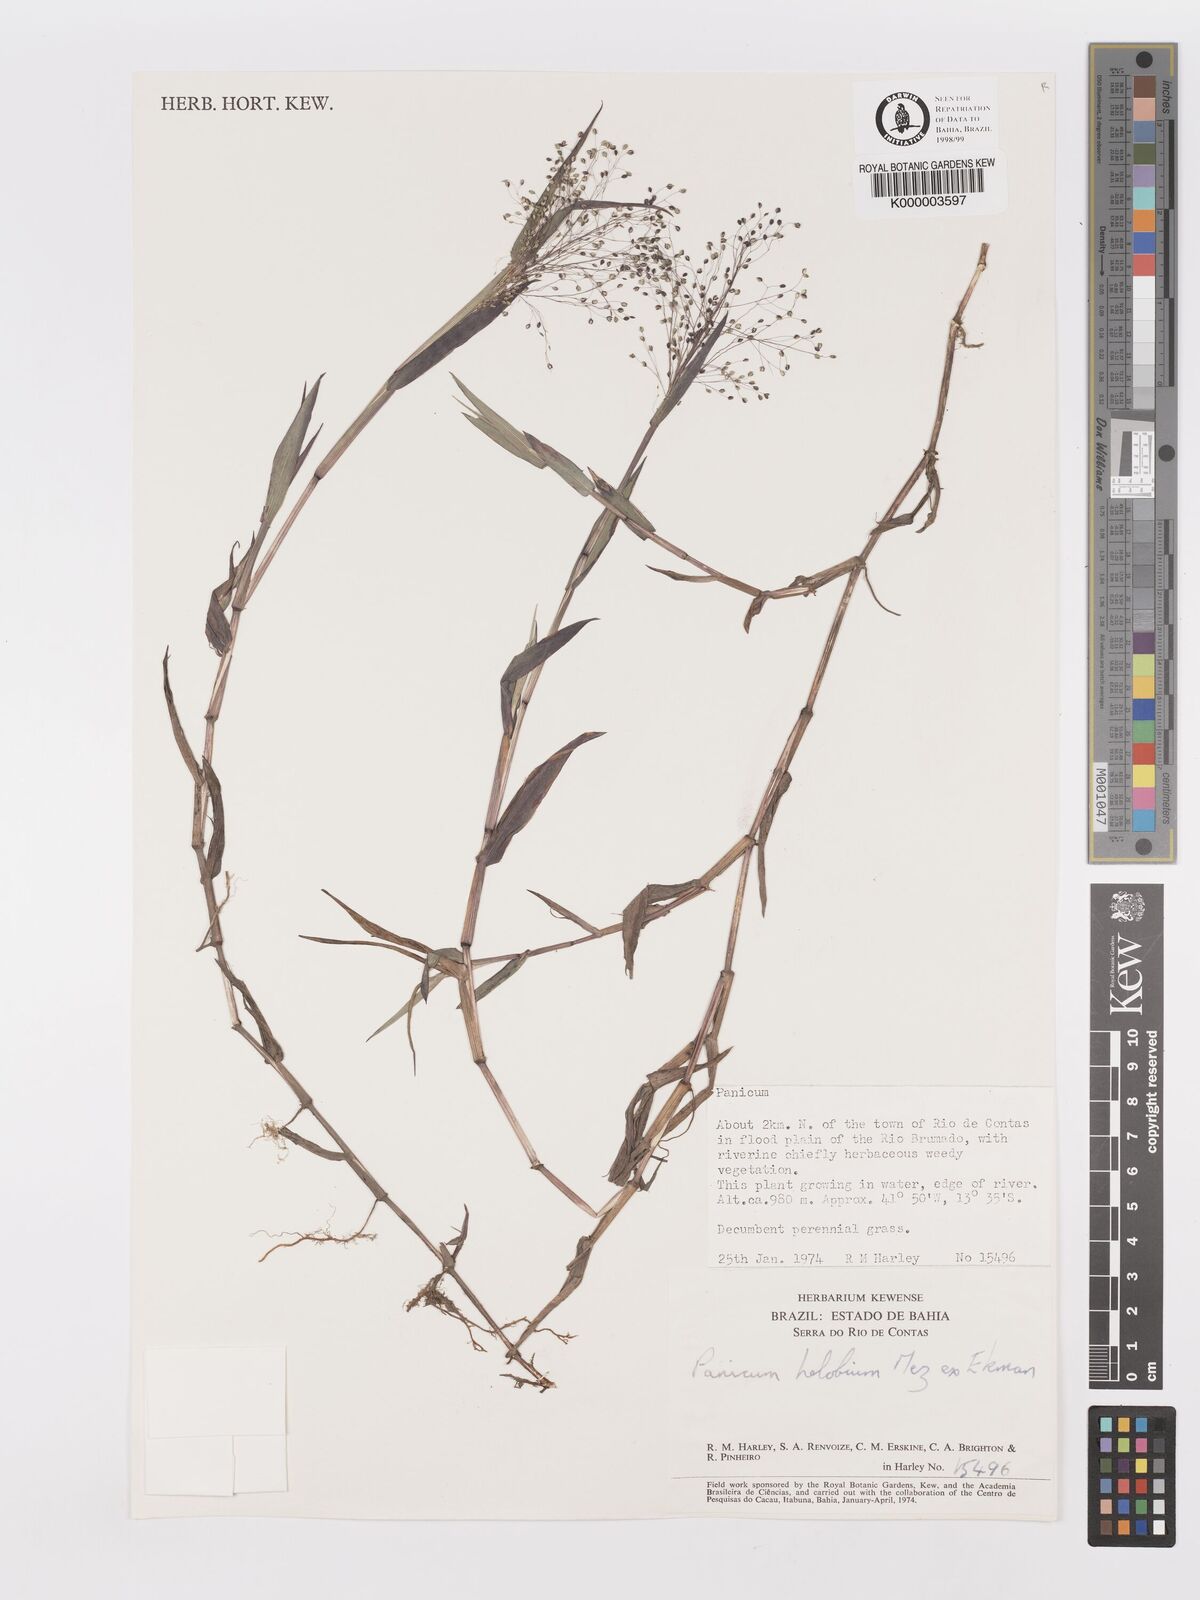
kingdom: Plantae
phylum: Tracheophyta
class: Liliopsida
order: Poales
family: Poaceae
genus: Trichanthecium
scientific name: Trichanthecium schwackeanum
